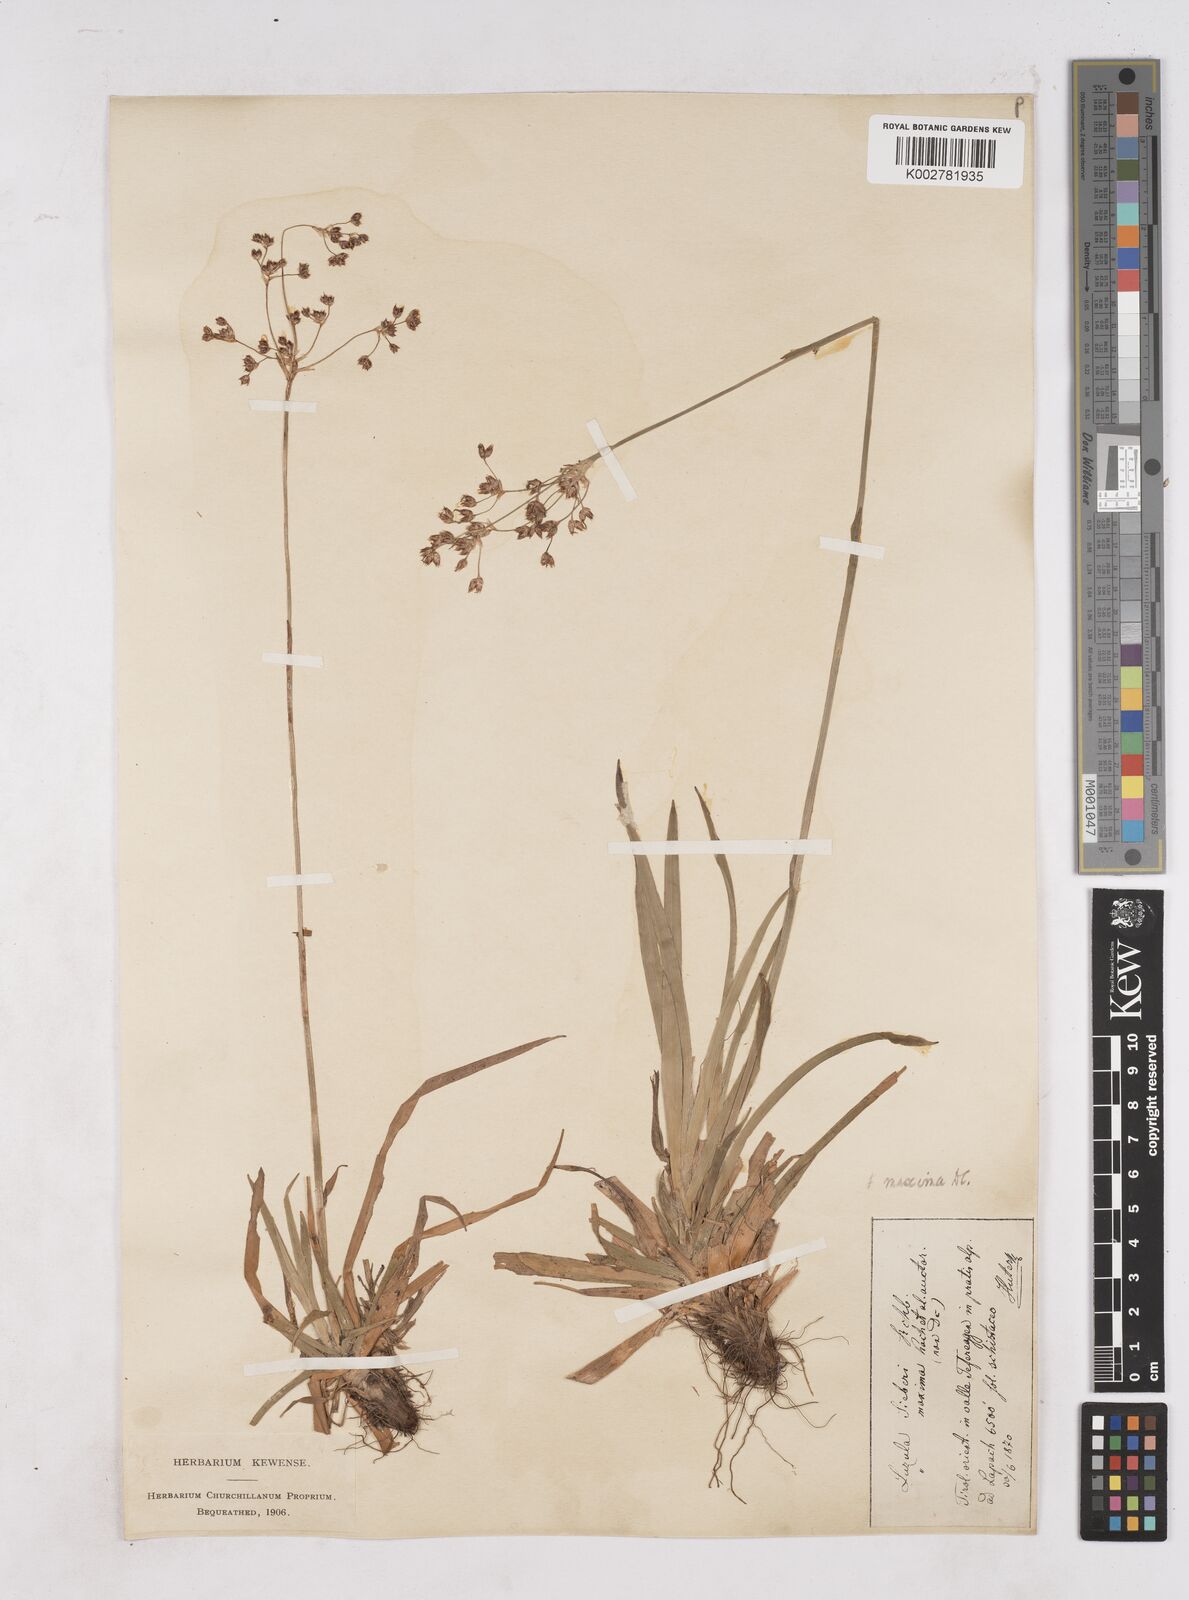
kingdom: Plantae
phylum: Tracheophyta
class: Liliopsida
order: Poales
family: Juncaceae
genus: Luzula
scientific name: Luzula sylvatica
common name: Great wood-rush
